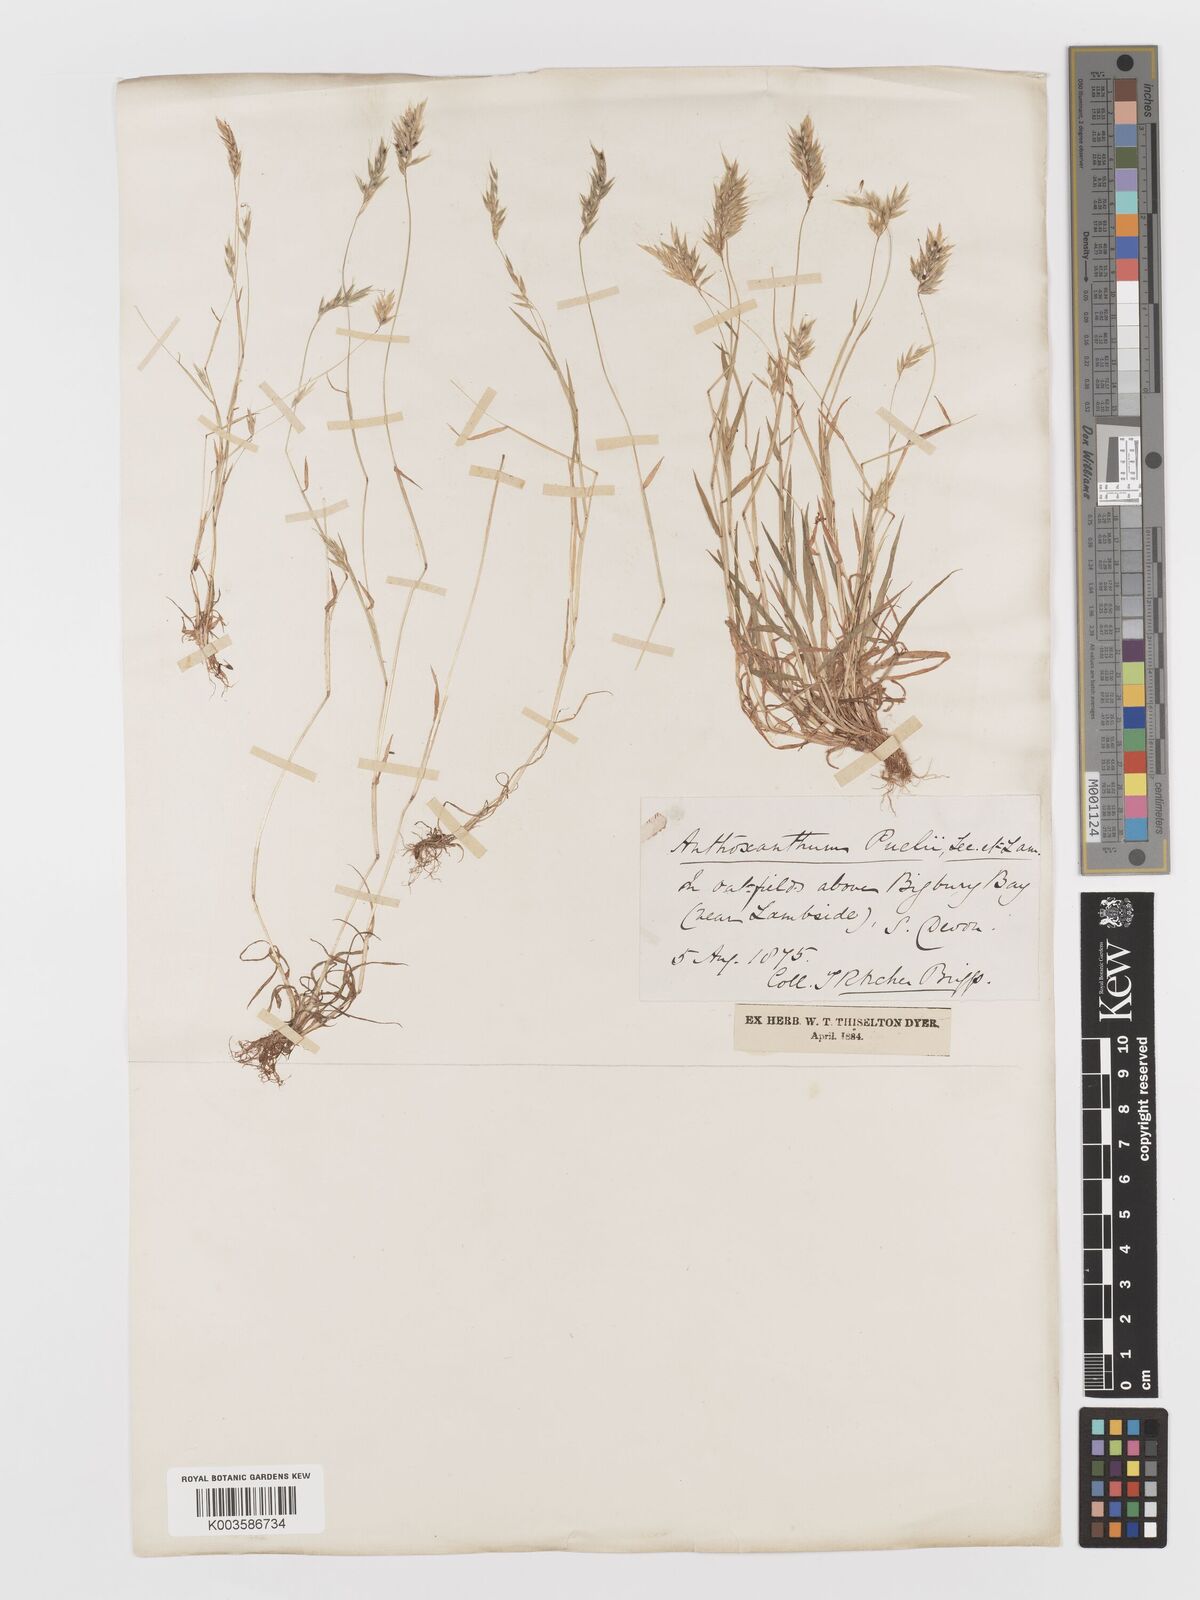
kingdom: Plantae
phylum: Tracheophyta
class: Liliopsida
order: Poales
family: Poaceae
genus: Anthoxanthum
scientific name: Anthoxanthum aristatum
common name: Annual vernal-grass
